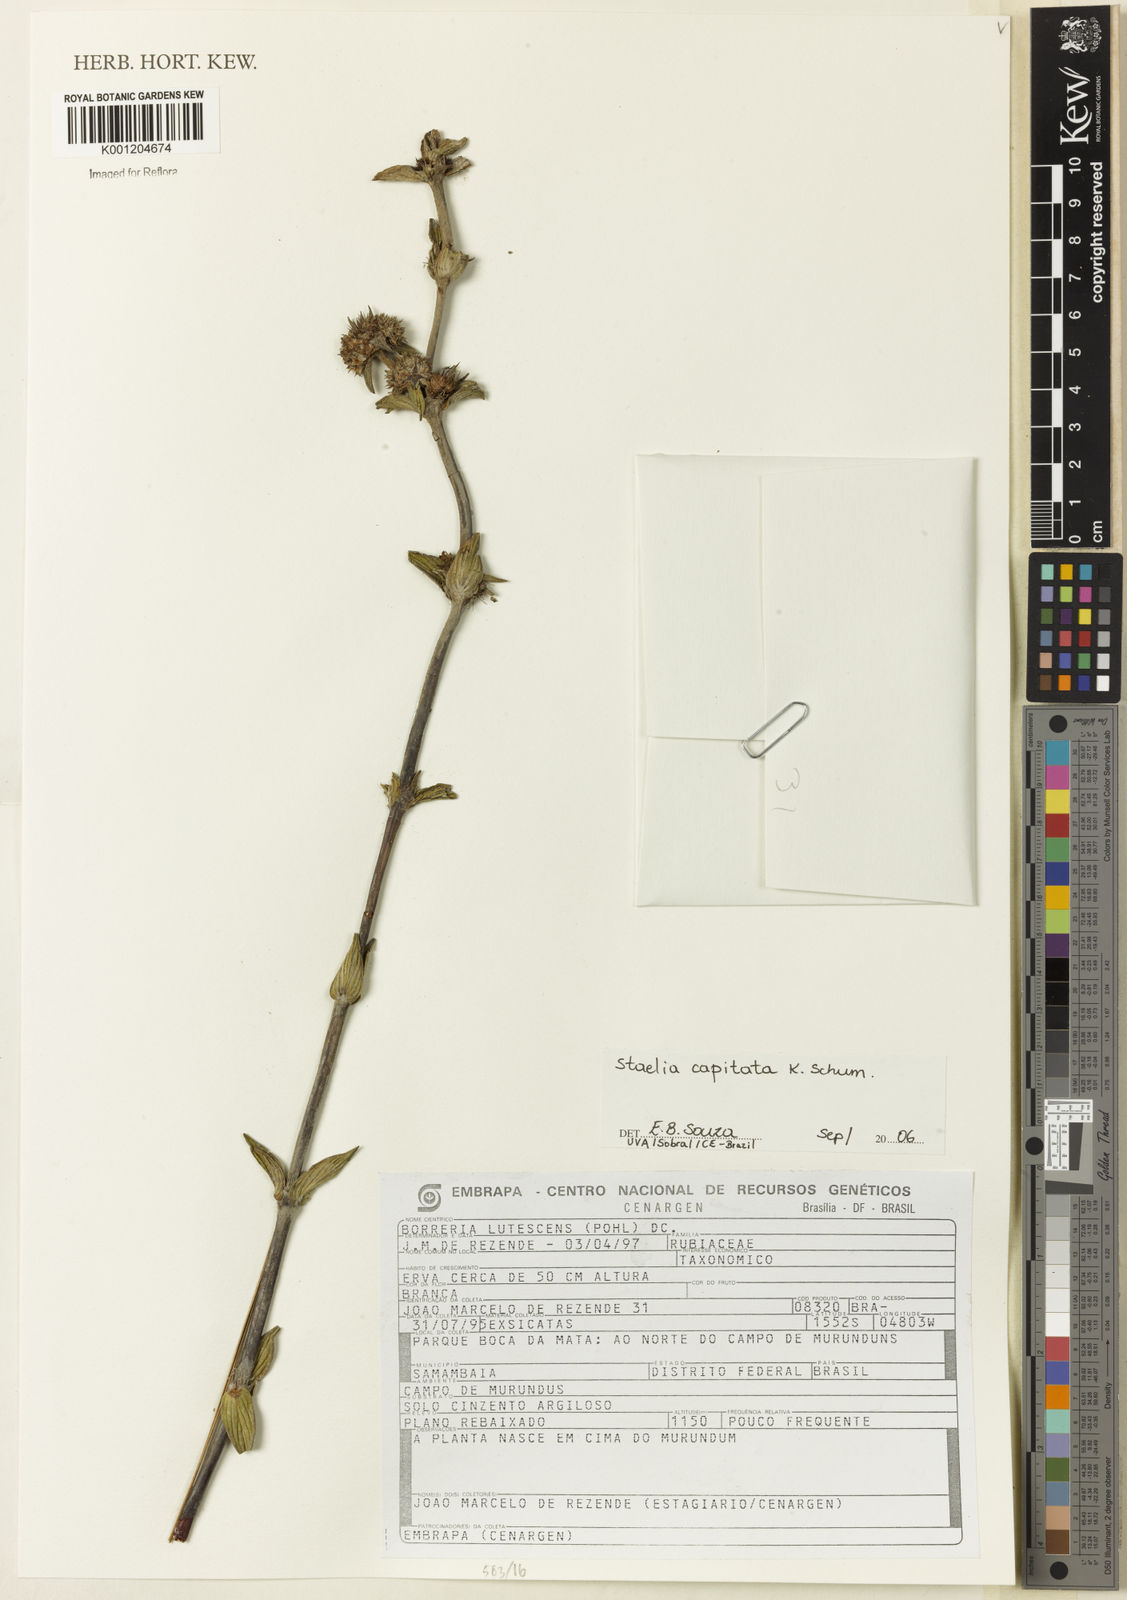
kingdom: Plantae
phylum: Tracheophyta
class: Magnoliopsida
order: Gentianales
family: Rubiaceae
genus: Planaltina
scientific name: Planaltina capitata
